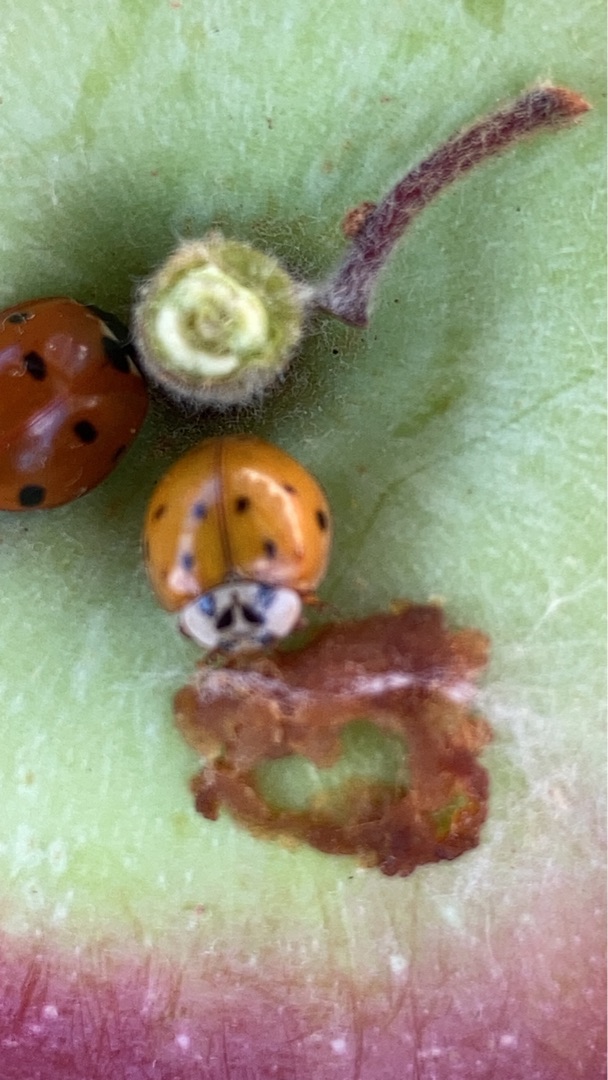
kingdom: Animalia
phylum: Arthropoda
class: Insecta
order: Coleoptera
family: Coccinellidae
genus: Harmonia
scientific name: Harmonia axyridis
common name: Harlekinmariehøne
